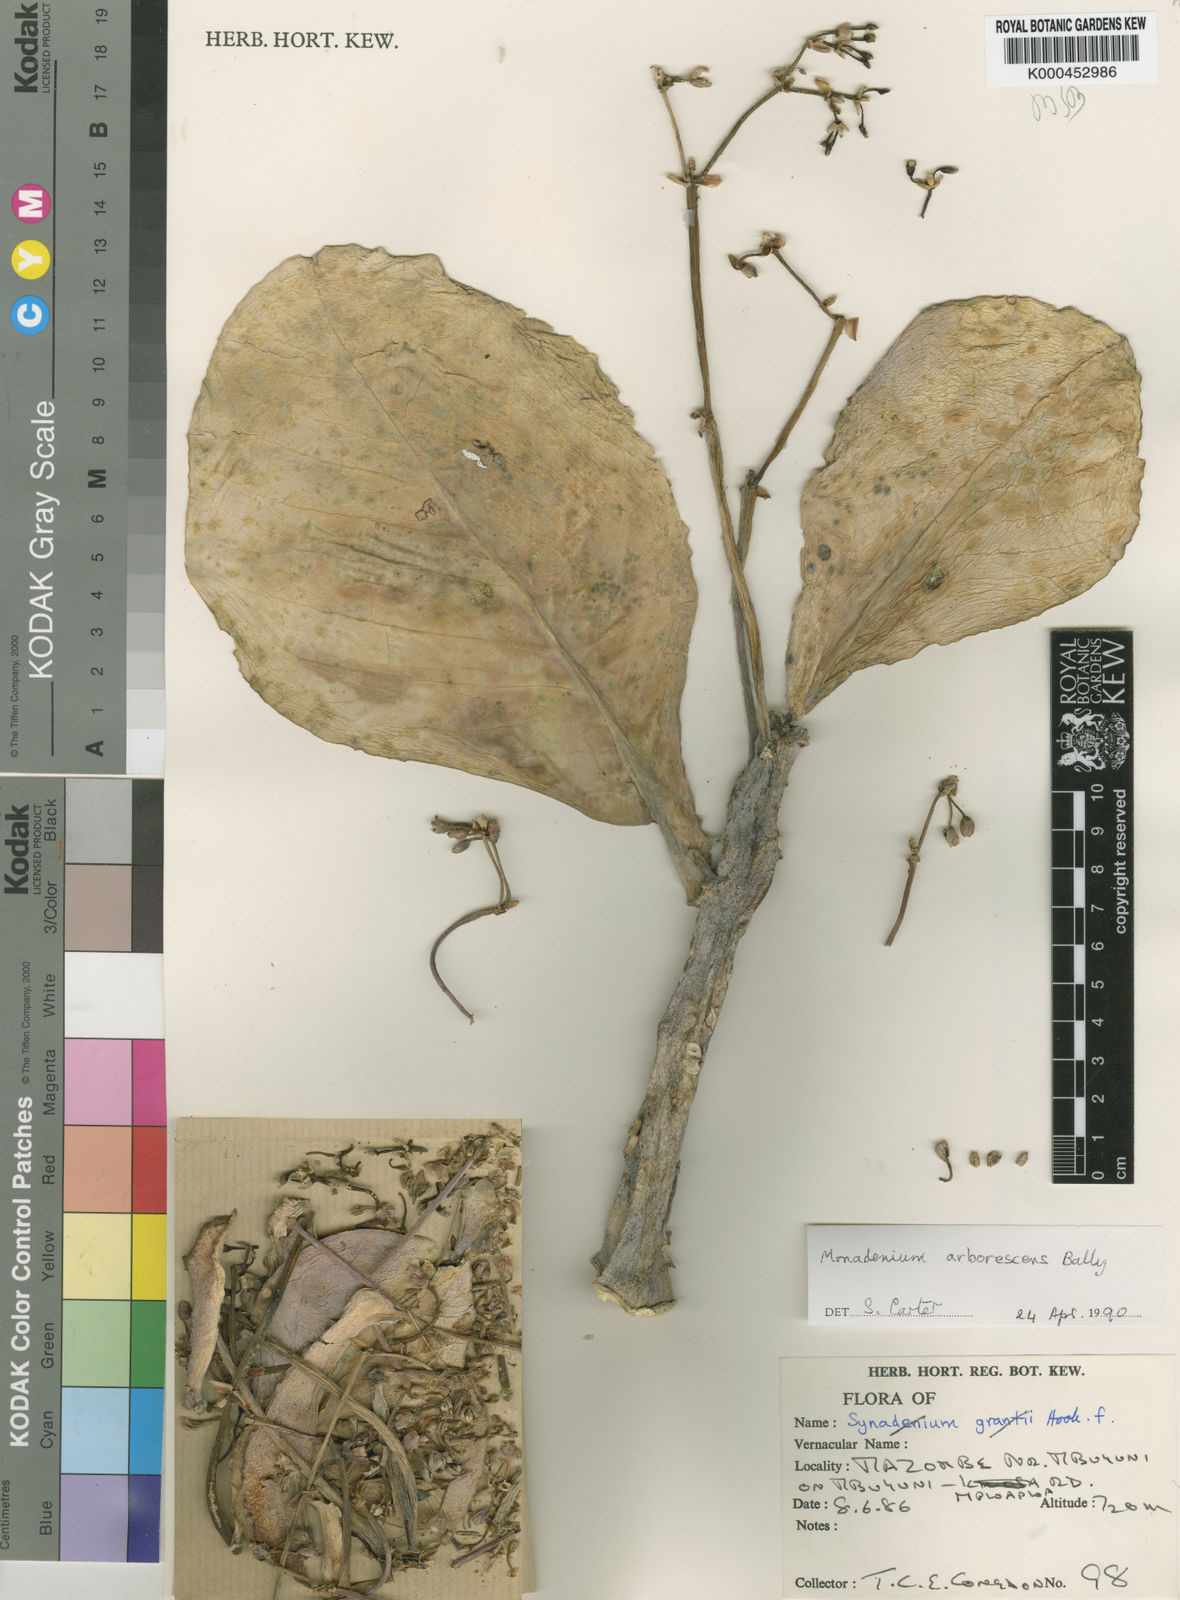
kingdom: Plantae
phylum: Tracheophyta
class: Magnoliopsida
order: Malpighiales
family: Euphorbiaceae
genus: Euphorbia
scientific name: Euphorbia neoarborescens
